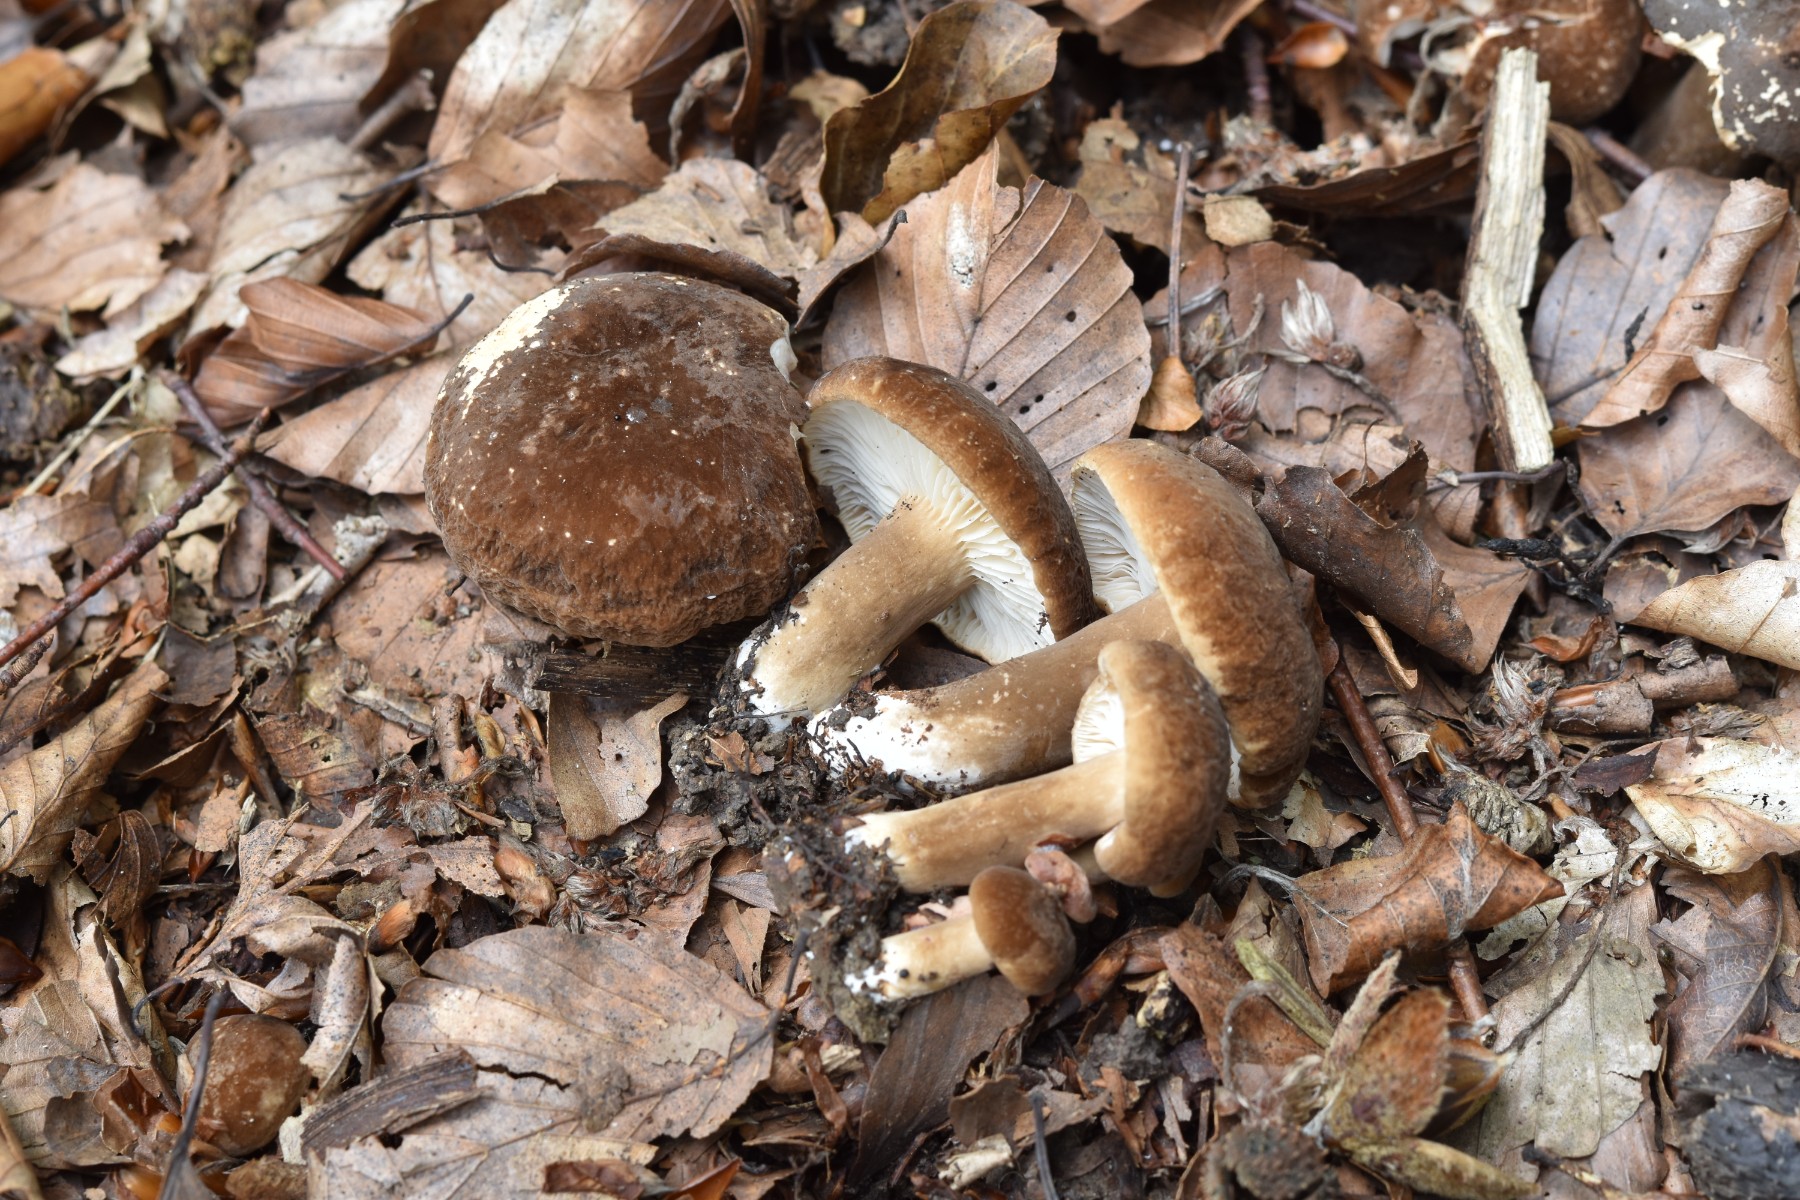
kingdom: Fungi
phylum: Basidiomycota
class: Agaricomycetes
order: Russulales
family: Russulaceae
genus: Lactarius
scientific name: Lactarius fuliginosus
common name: sodbrun mælkehat
